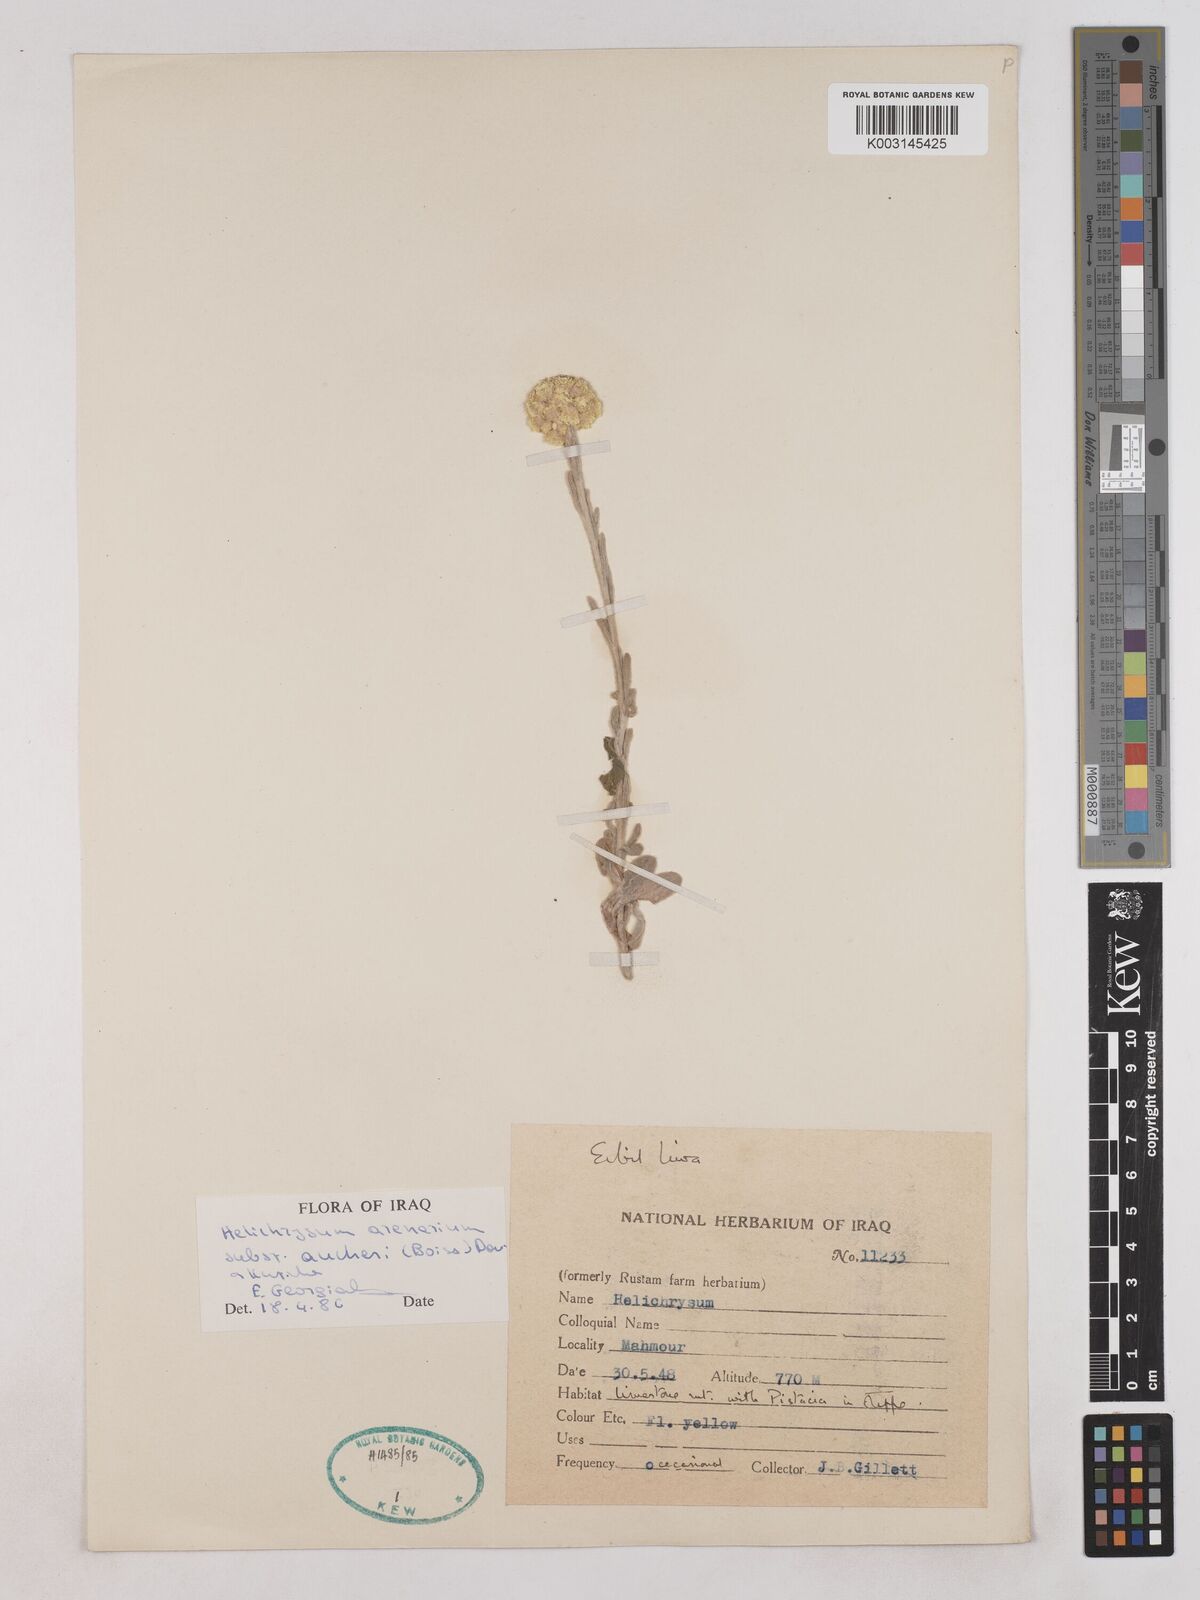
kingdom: Plantae
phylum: Tracheophyta
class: Magnoliopsida
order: Asterales
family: Asteraceae
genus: Helichrysum
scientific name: Helichrysum arenarium
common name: Strawflower
